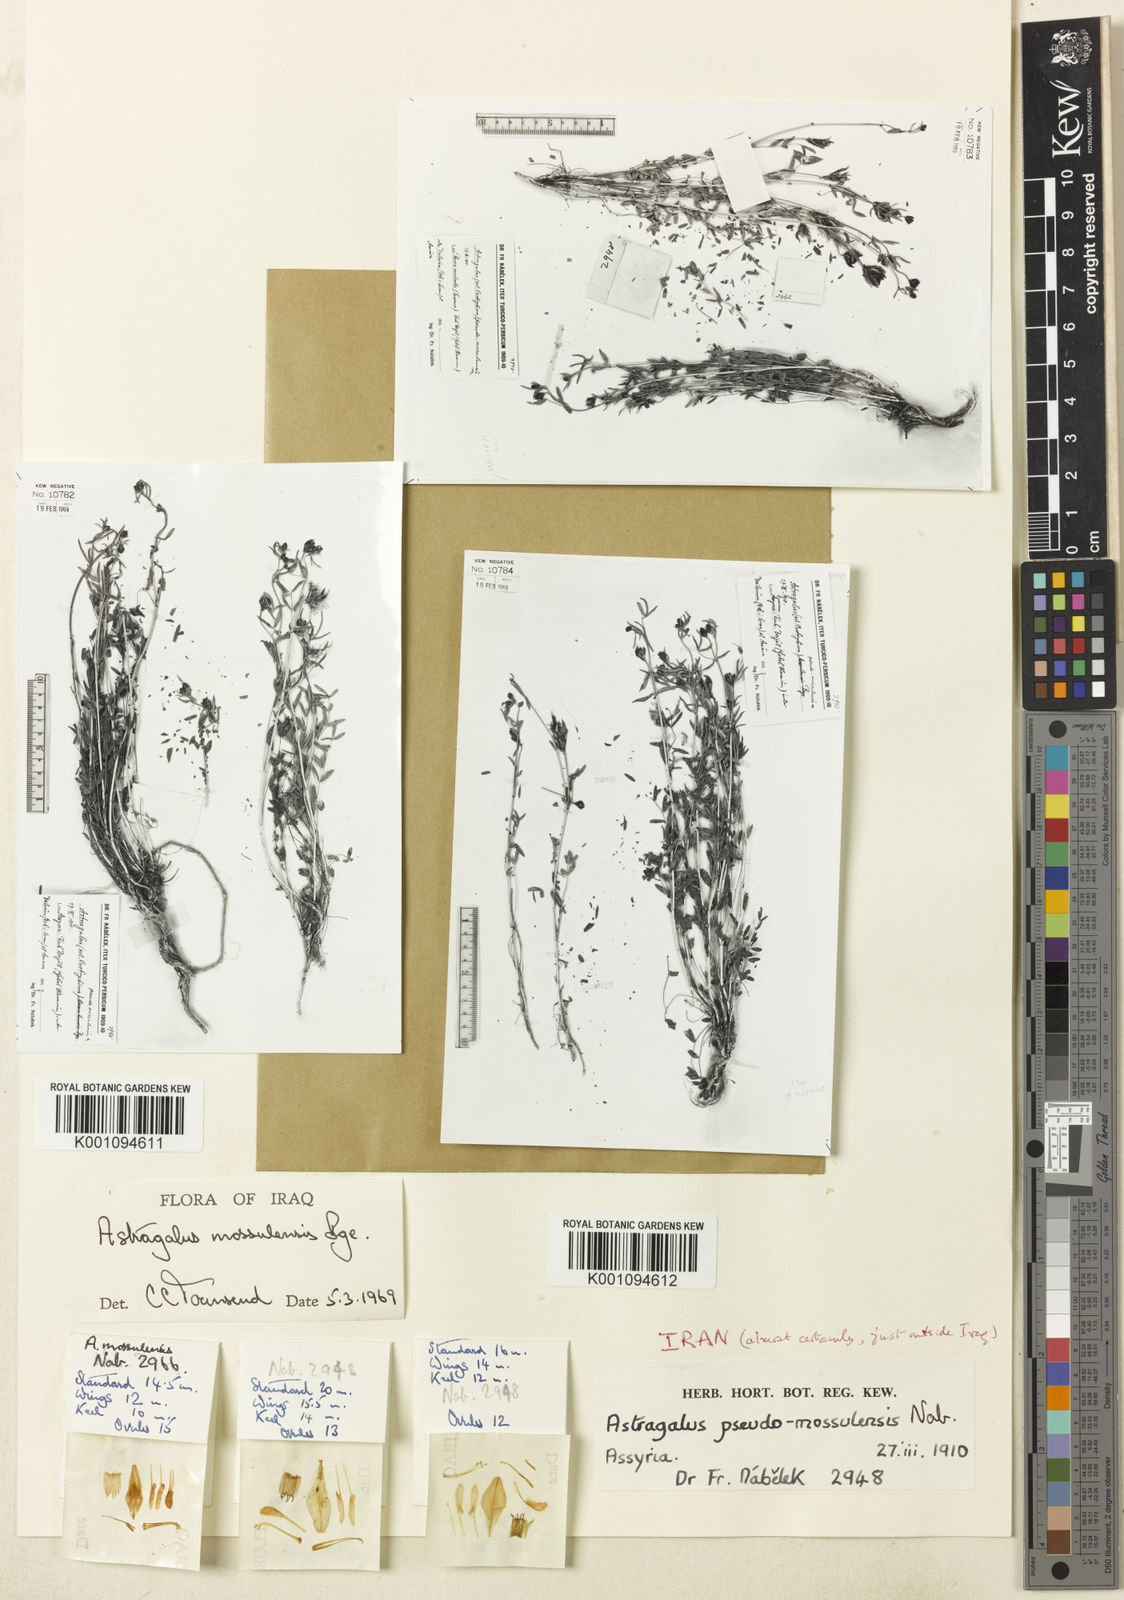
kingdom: Plantae
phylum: Tracheophyta
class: Magnoliopsida
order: Fabales
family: Fabaceae
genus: Astragalus
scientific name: Astragalus
